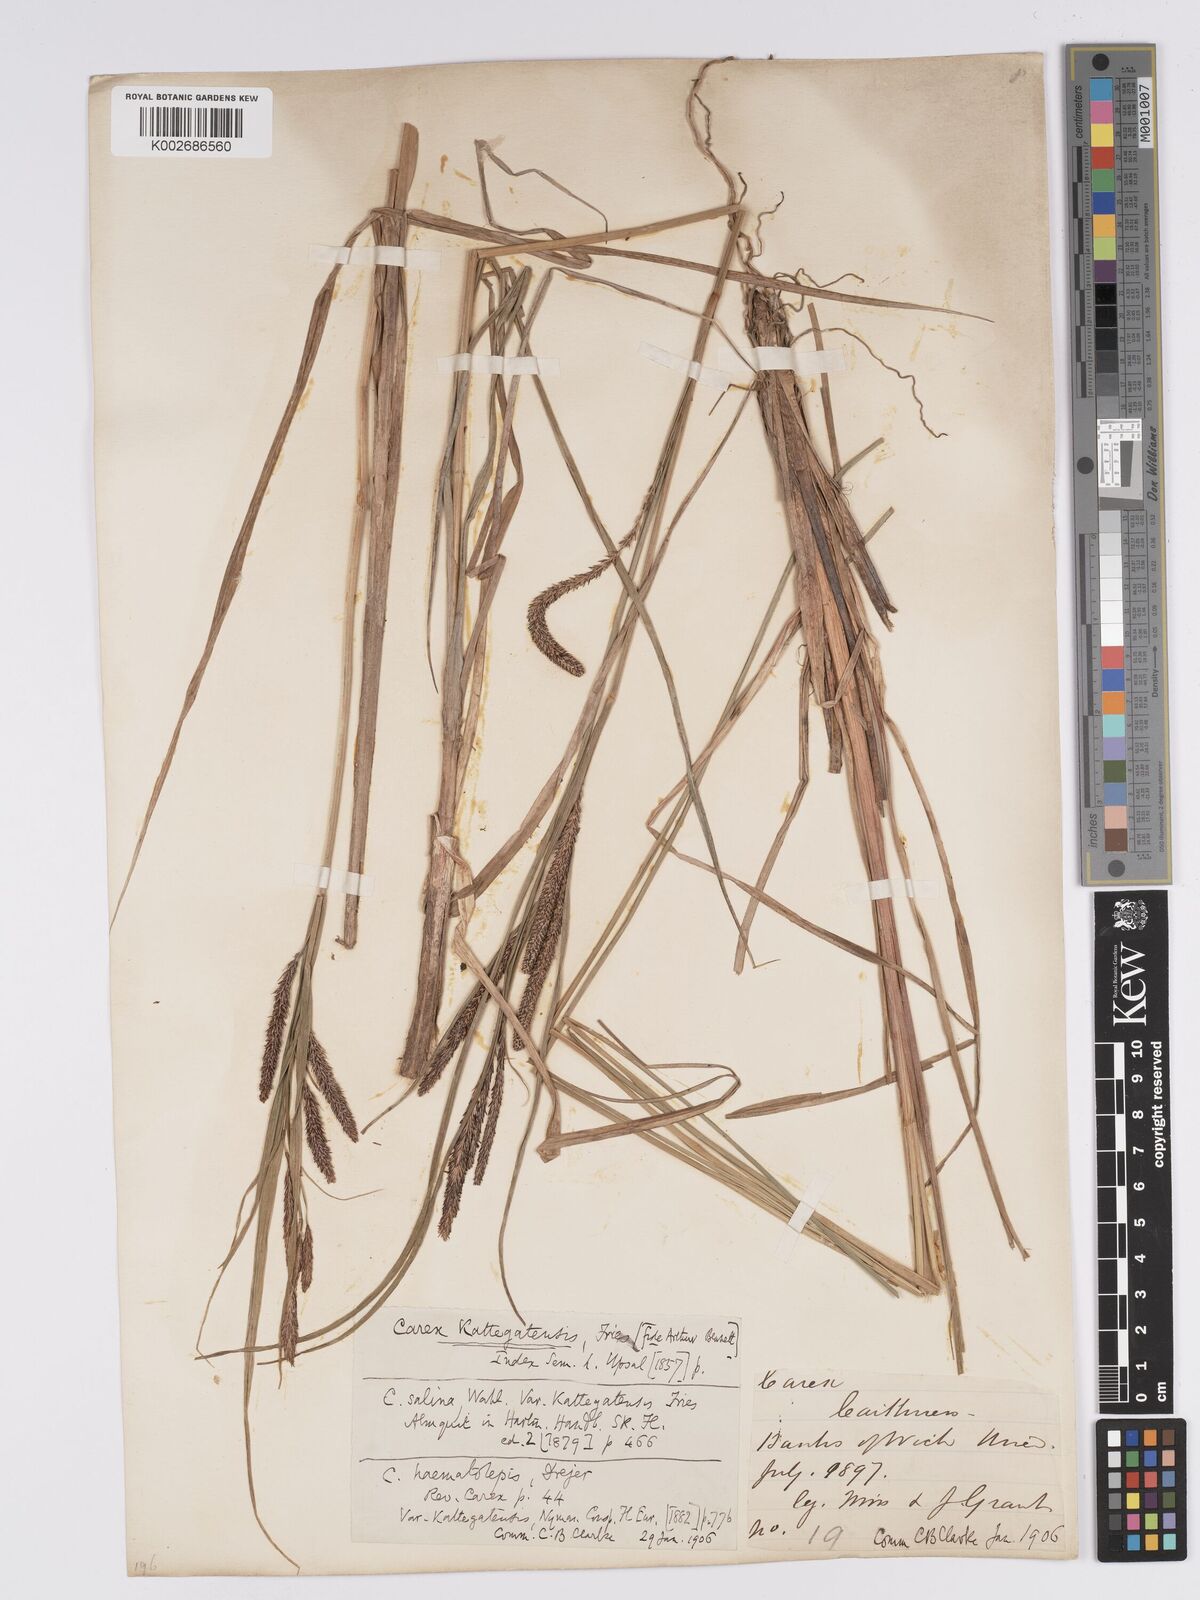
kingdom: Plantae
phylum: Tracheophyta
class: Liliopsida
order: Poales
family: Cyperaceae
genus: Carex
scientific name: Carex aquatilis
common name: Water sedge
